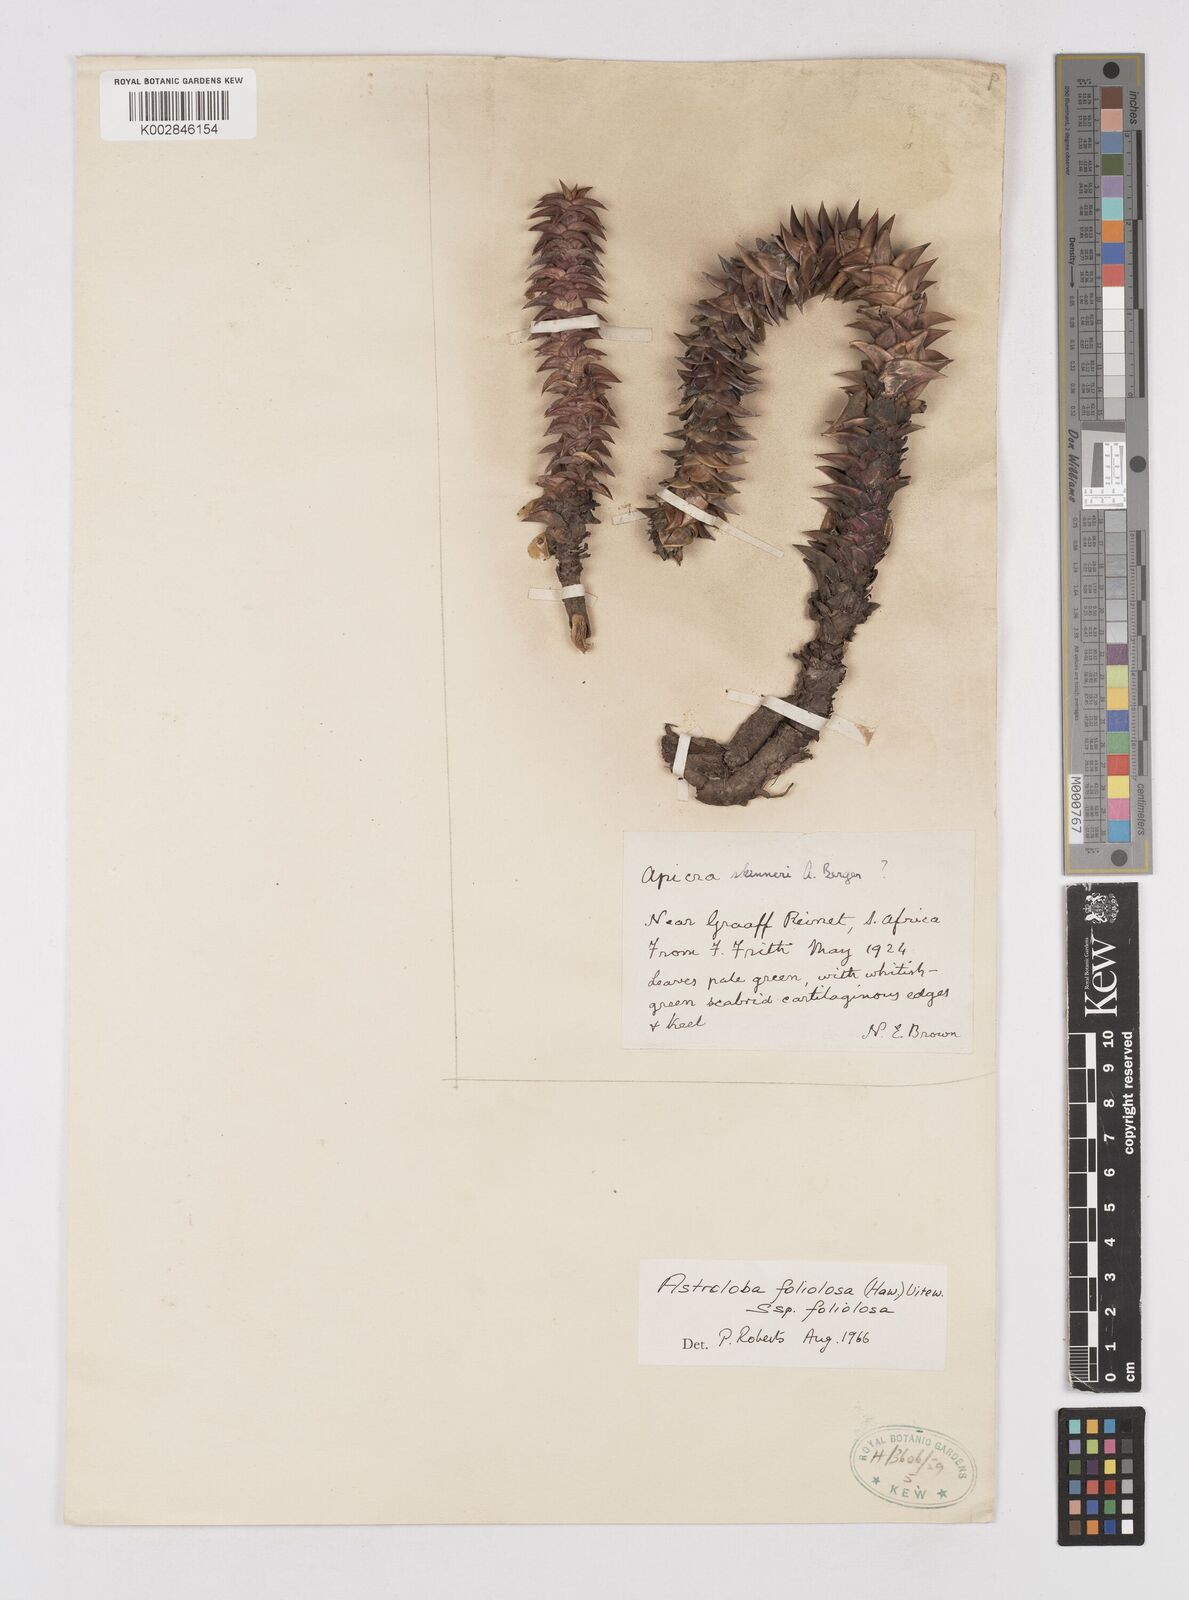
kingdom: Plantae
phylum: Tracheophyta
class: Liliopsida
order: Asparagales
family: Asphodelaceae
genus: Astroloba
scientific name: Astroloba foliolosa
